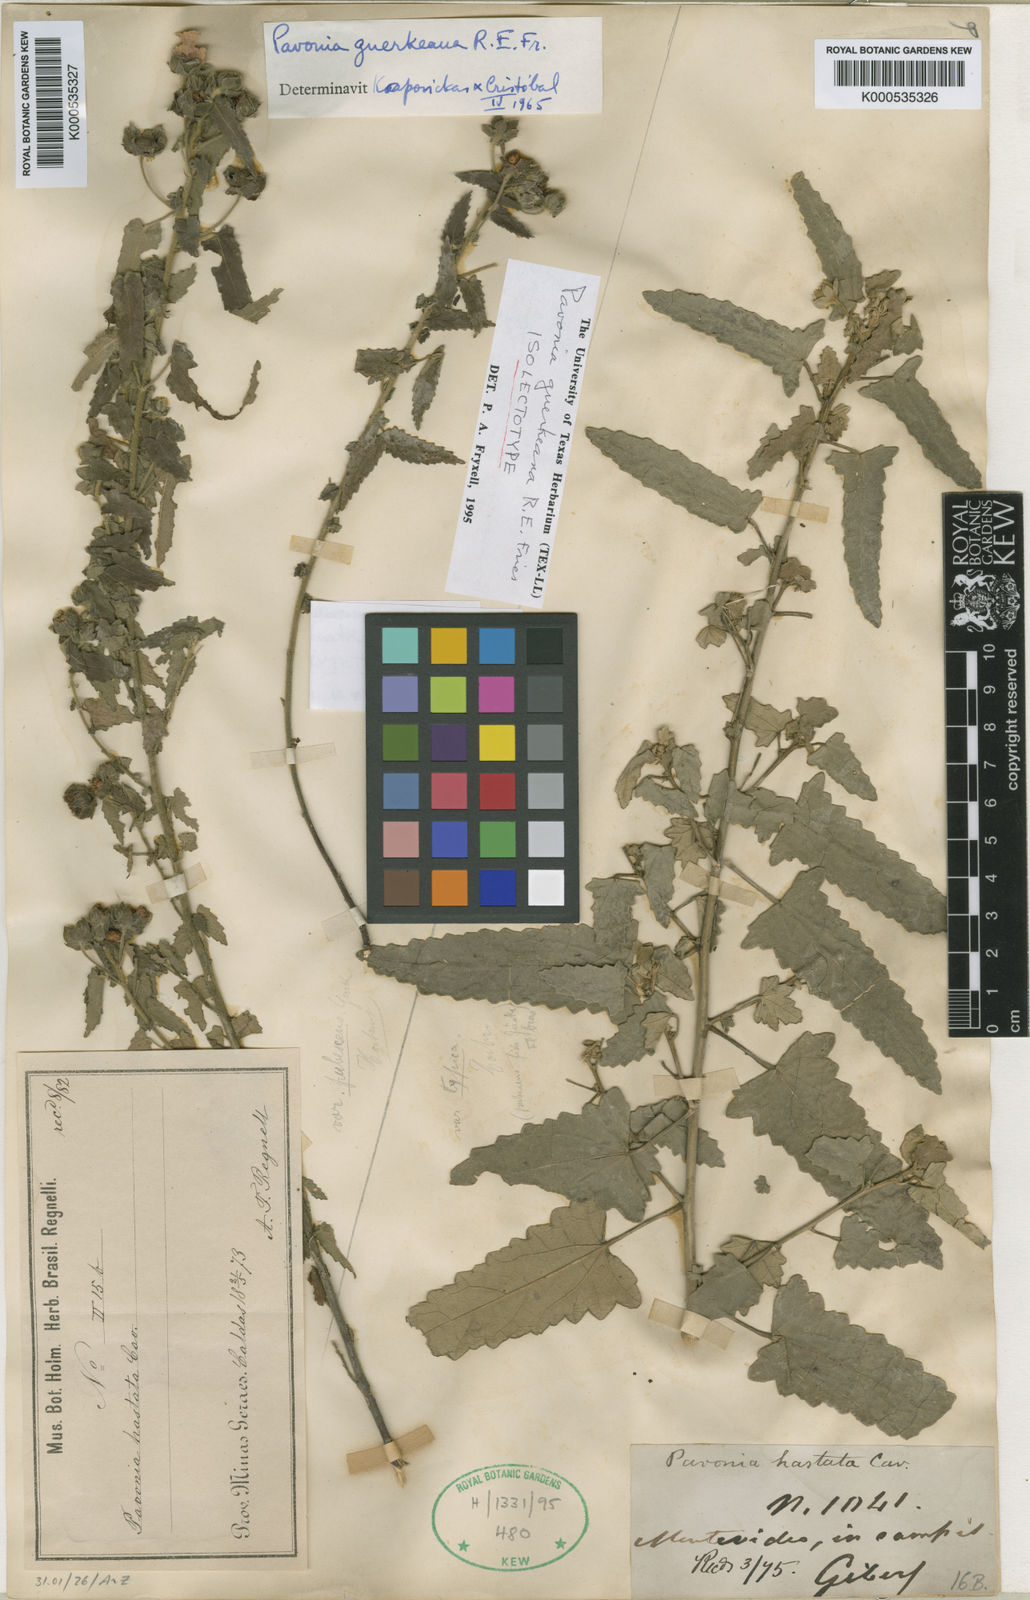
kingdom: Plantae
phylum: Tracheophyta
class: Magnoliopsida
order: Malvales
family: Malvaceae
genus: Pavonia
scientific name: Pavonia guerkeana
